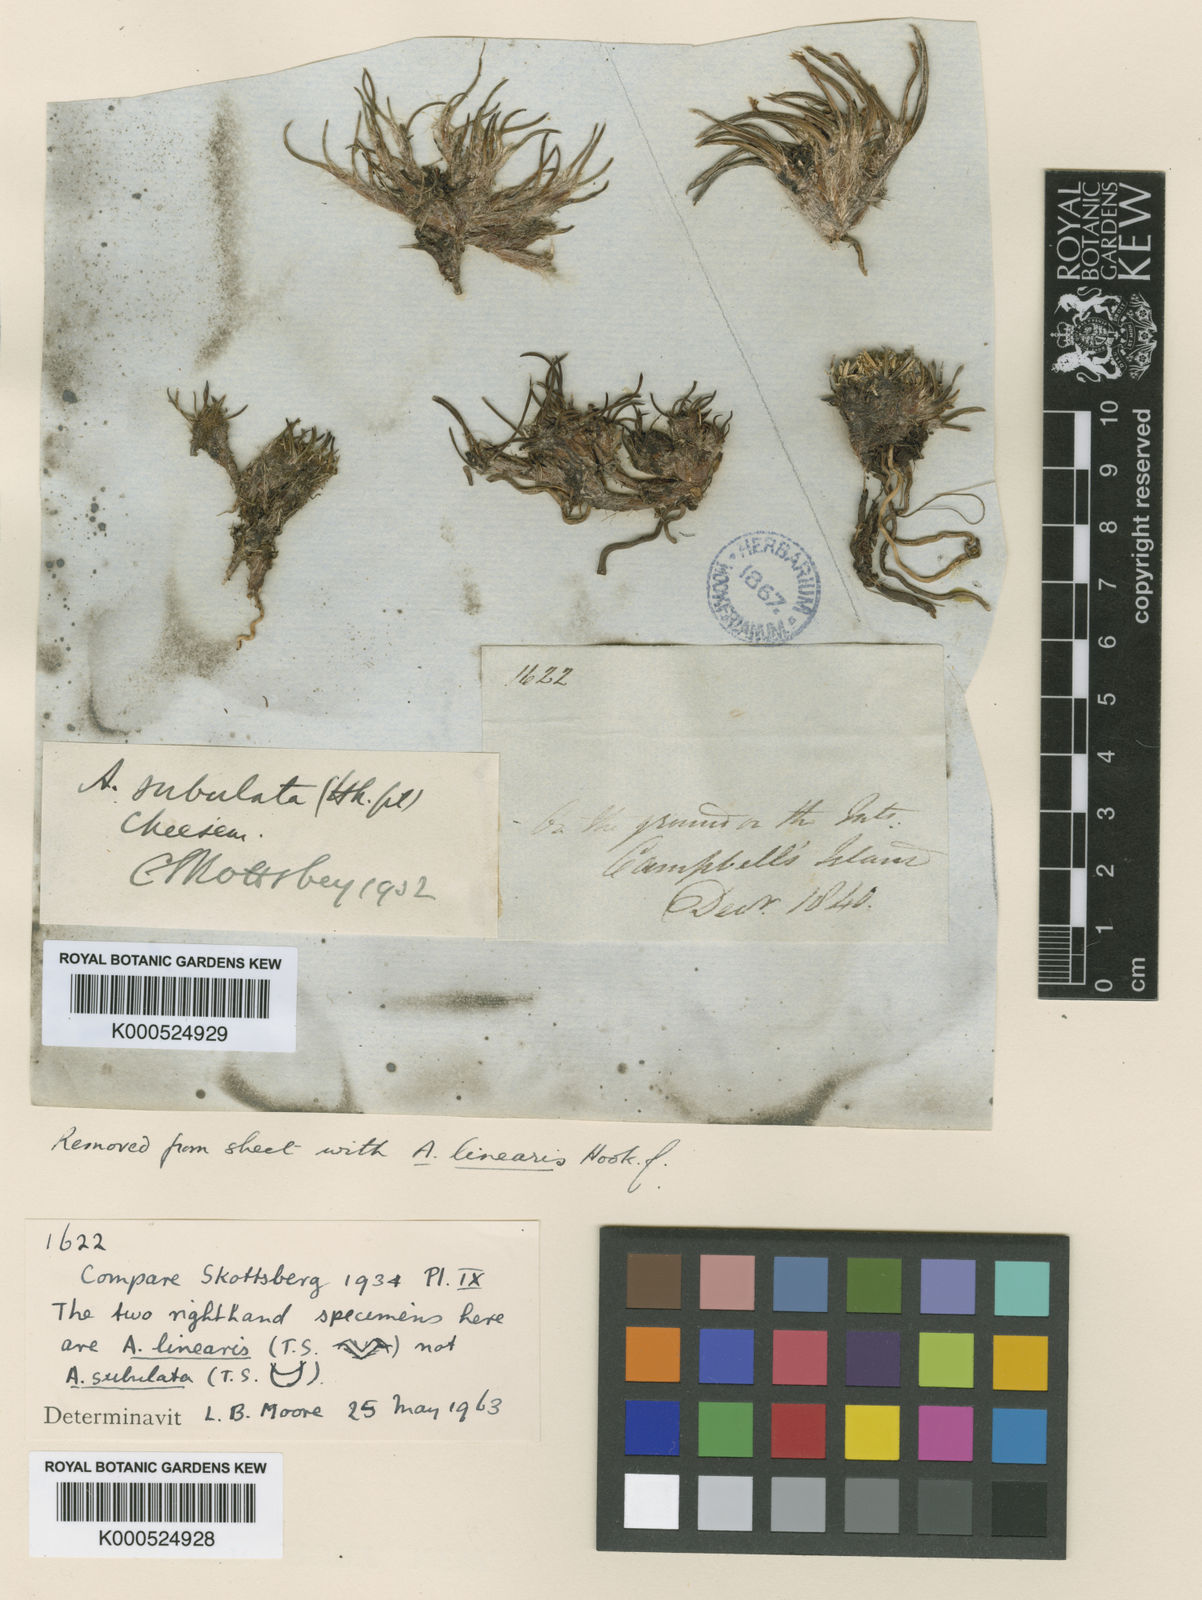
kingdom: Plantae
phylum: Tracheophyta
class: Liliopsida
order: Asparagales
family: Asteliaceae
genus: Astelia
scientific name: Astelia subulata
